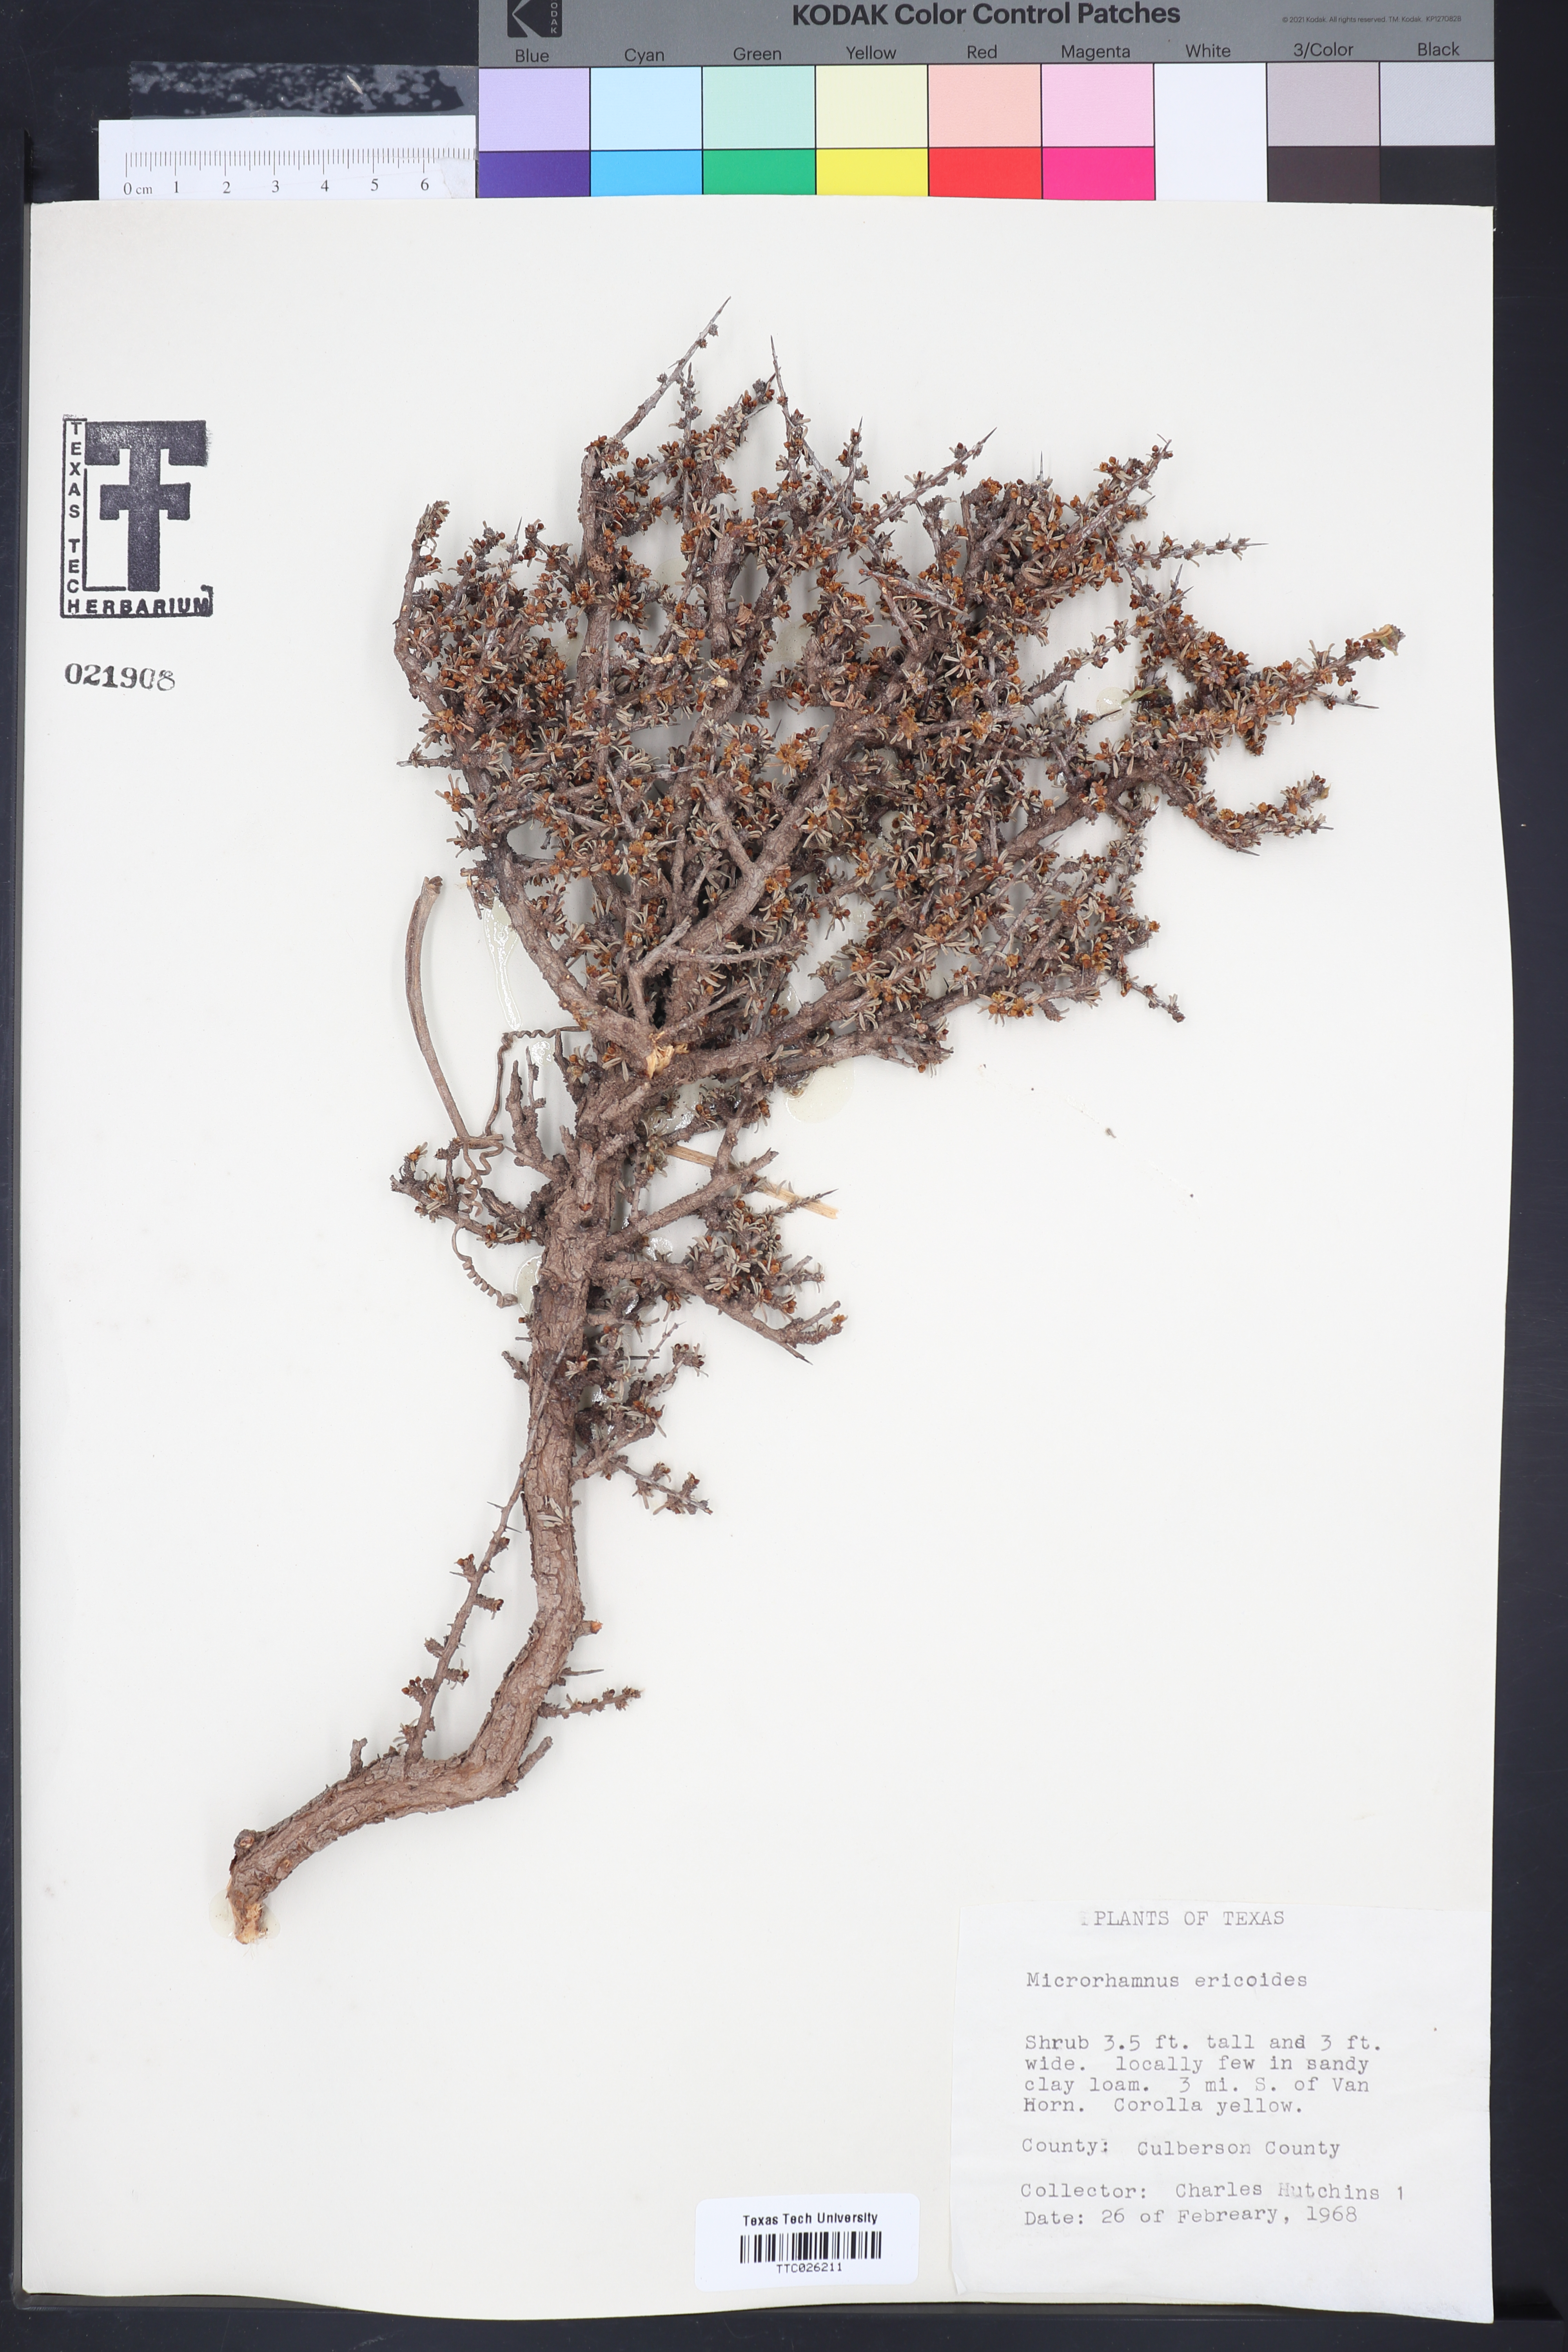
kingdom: Plantae
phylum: Tracheophyta
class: Magnoliopsida
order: Rosales
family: Rhamnaceae
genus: Condalia
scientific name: Condalia ericoides
